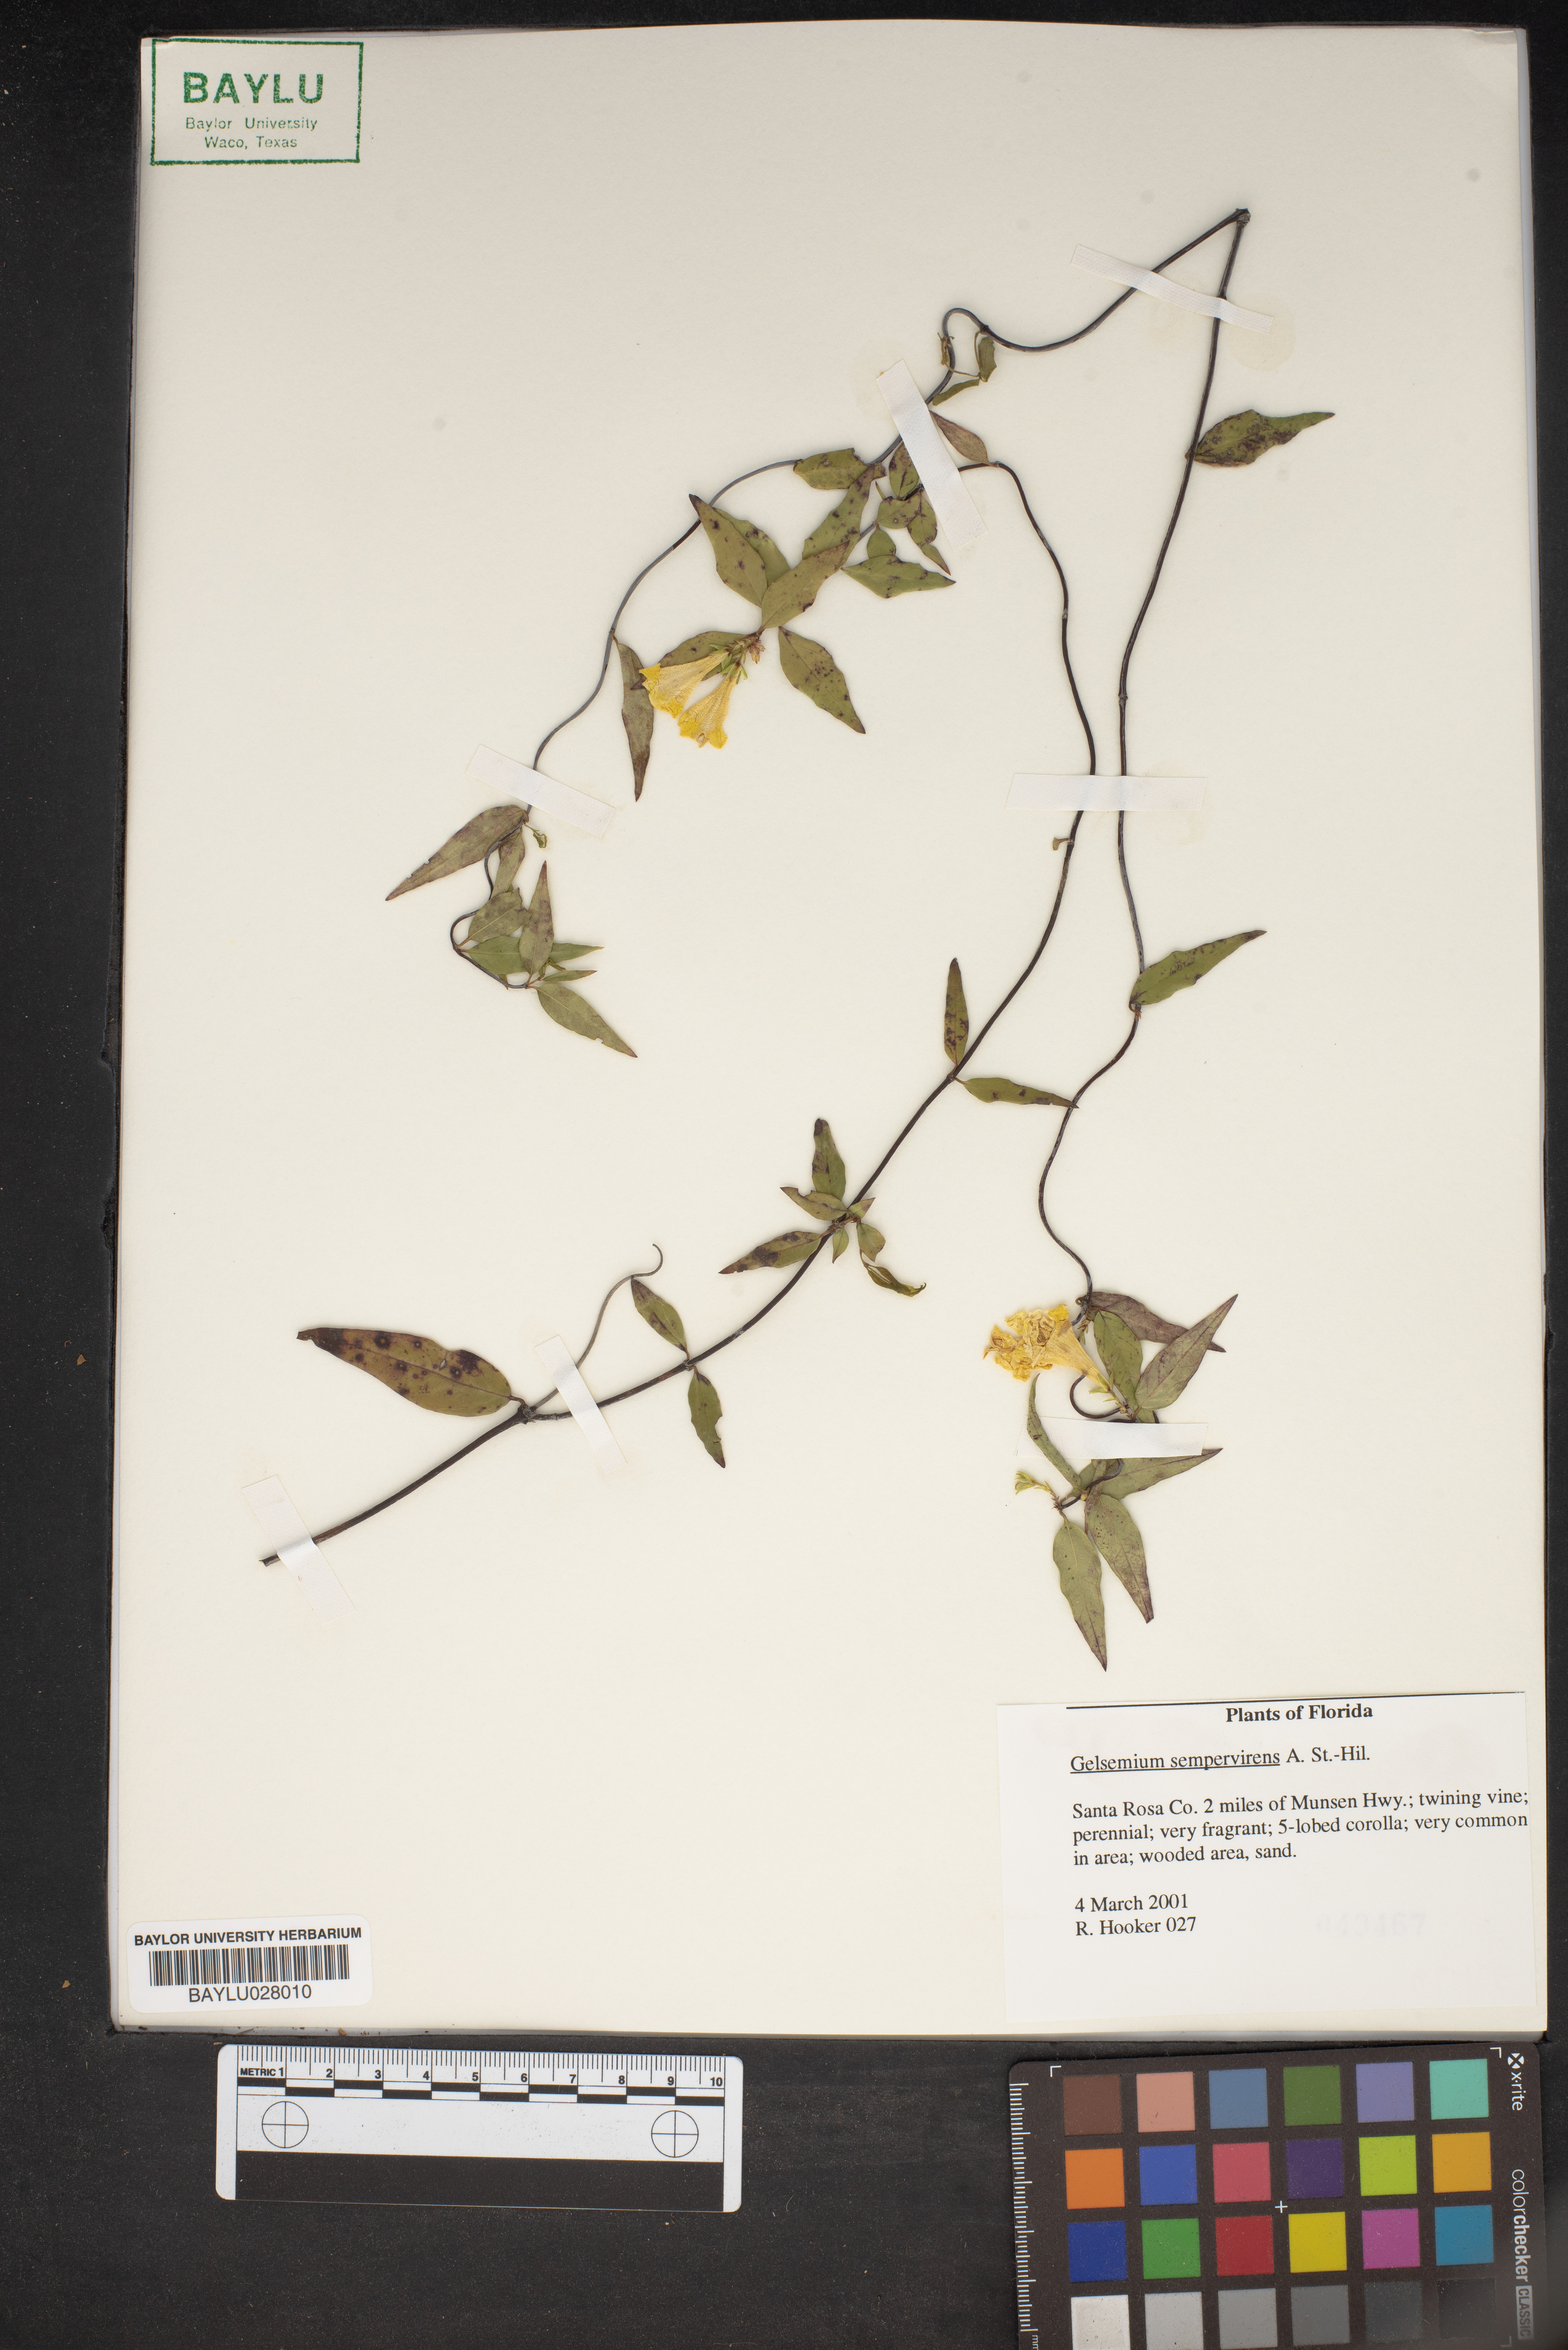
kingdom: Plantae
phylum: Tracheophyta
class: Magnoliopsida
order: Gentianales
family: Gelsemiaceae
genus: Gelsemium
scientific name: Gelsemium sempervirens
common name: Carolina-jasmine
